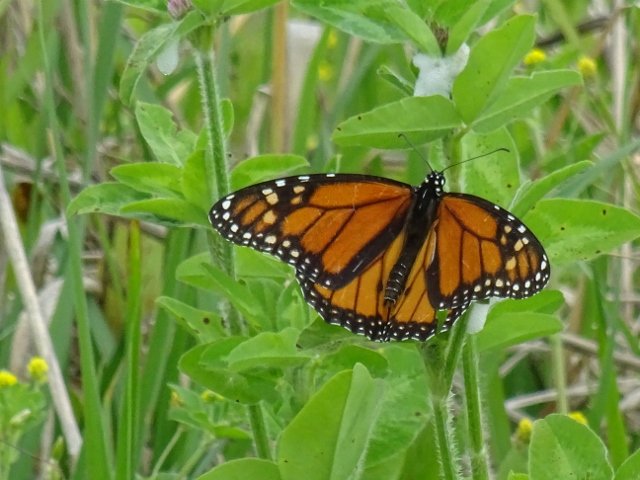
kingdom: Animalia
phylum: Arthropoda
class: Insecta
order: Lepidoptera
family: Nymphalidae
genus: Danaus
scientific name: Danaus plexippus
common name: Monarch
